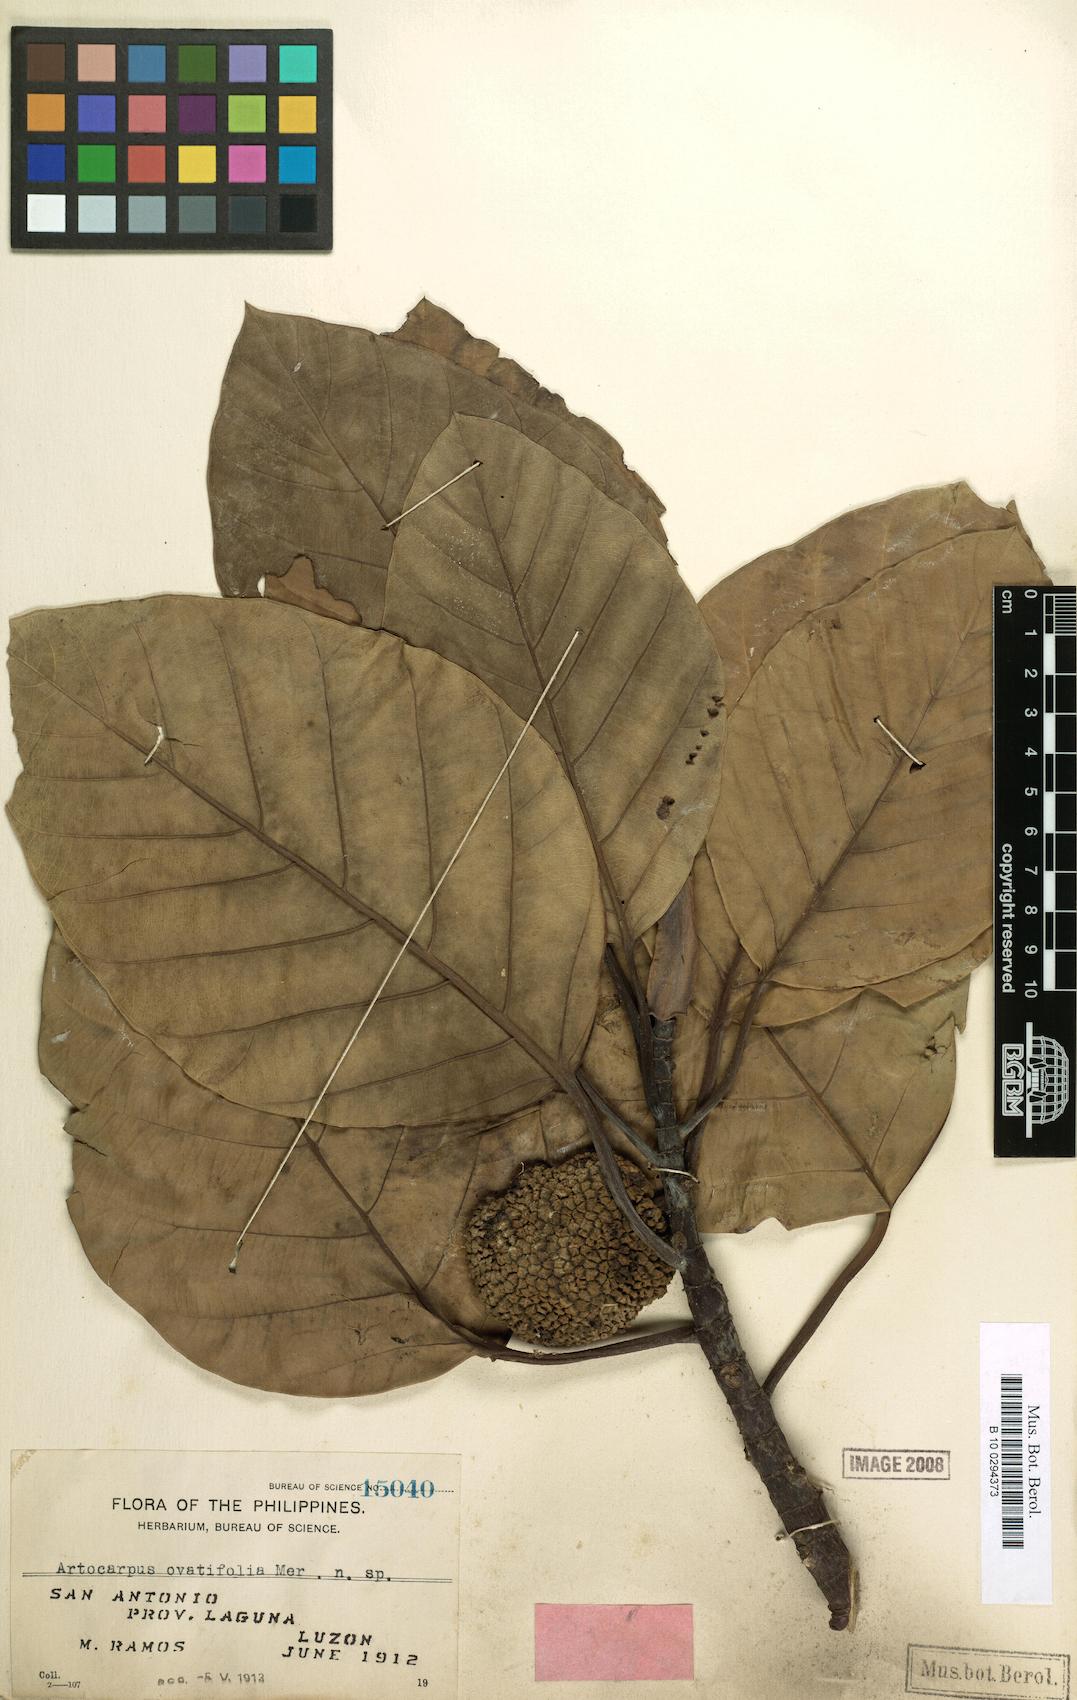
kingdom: Plantae
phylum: Tracheophyta
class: Magnoliopsida
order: Rosales
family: Moraceae
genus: Artocarpus
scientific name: Artocarpus treculianus
